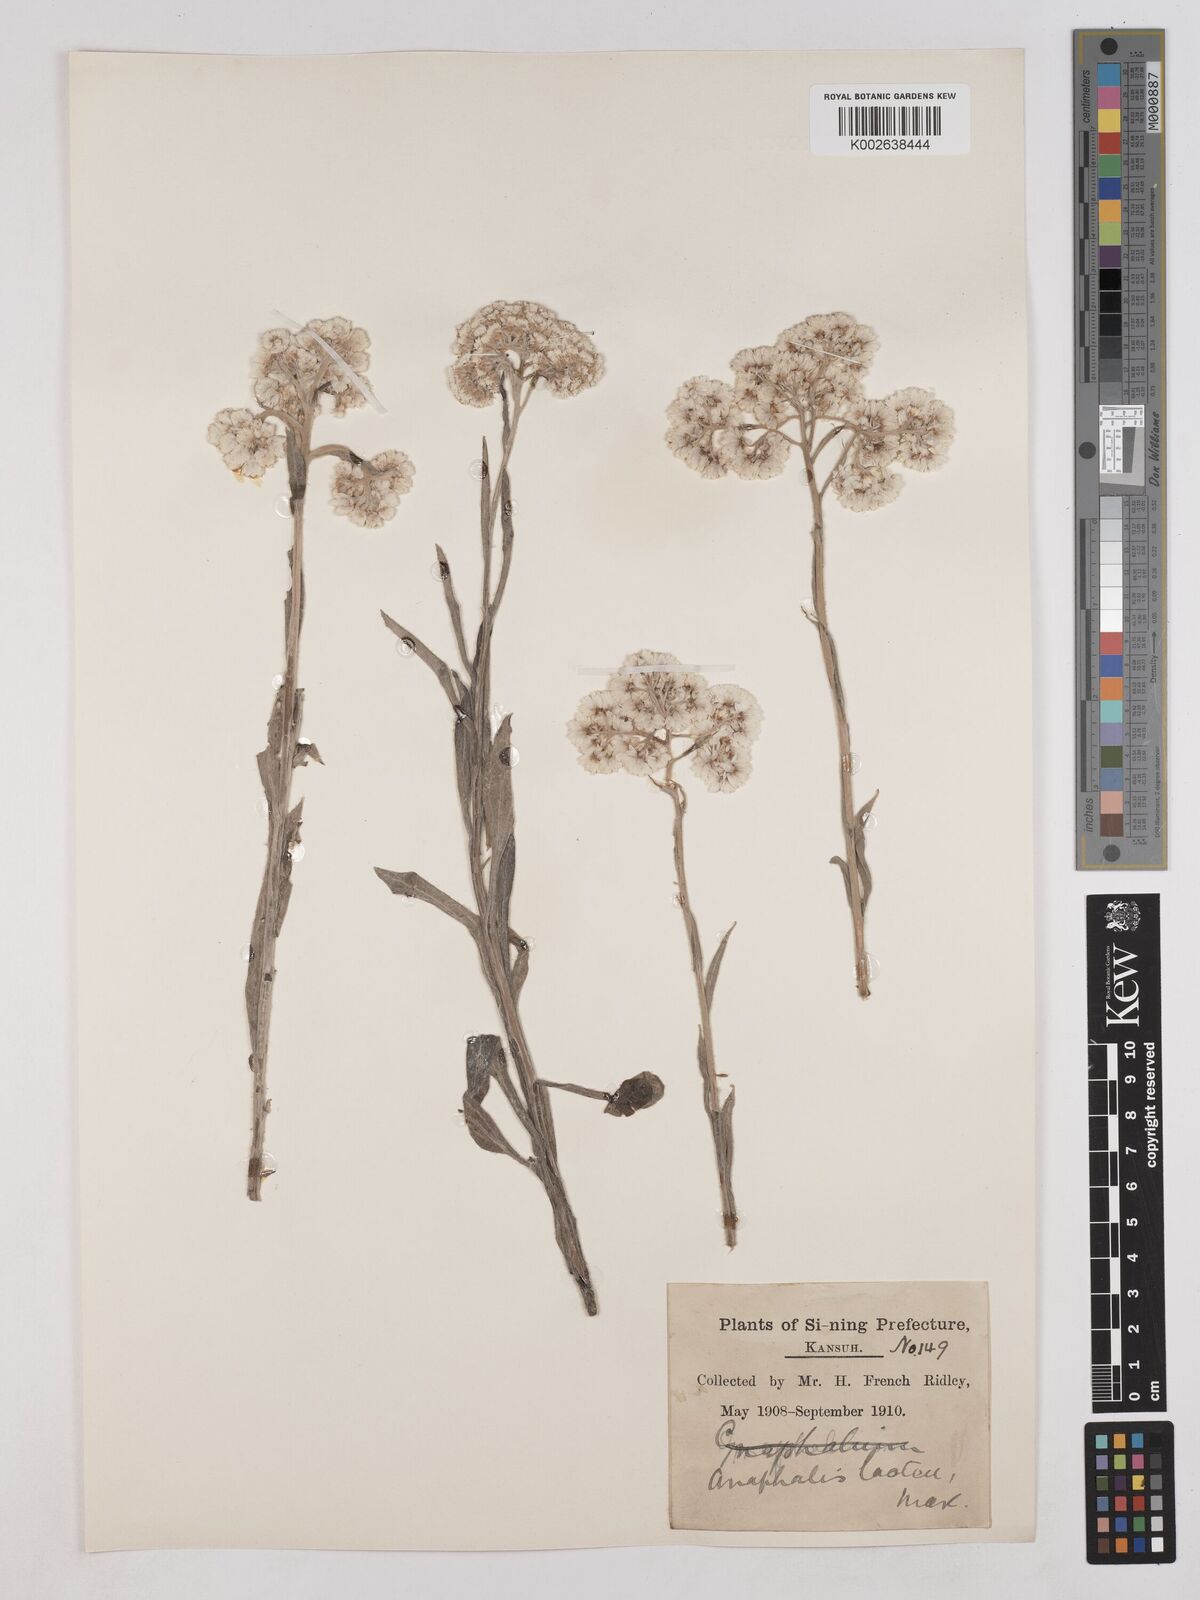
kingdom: Plantae
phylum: Tracheophyta
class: Magnoliopsida
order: Asterales
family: Asteraceae
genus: Anaphalis
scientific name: Anaphalis lactea
